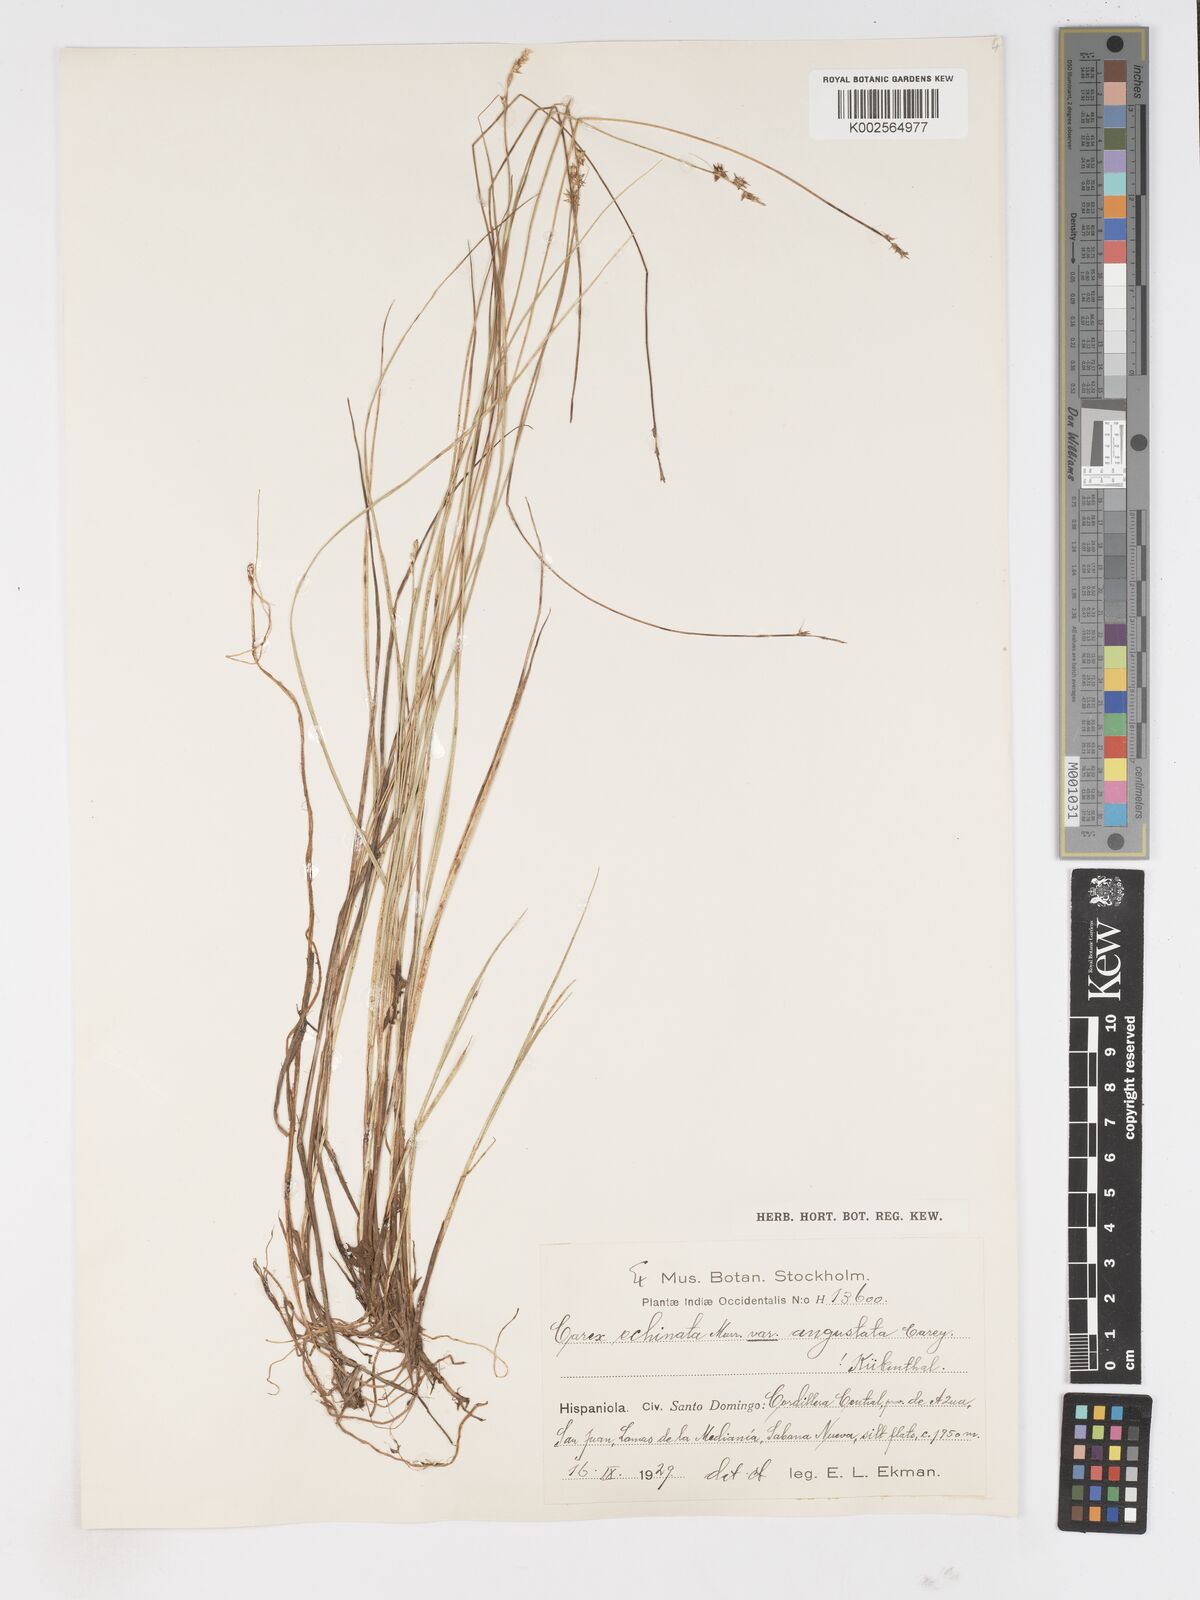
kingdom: Plantae
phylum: Tracheophyta
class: Liliopsida
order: Poales
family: Cyperaceae
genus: Carex
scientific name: Carex echinata
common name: Star sedge
